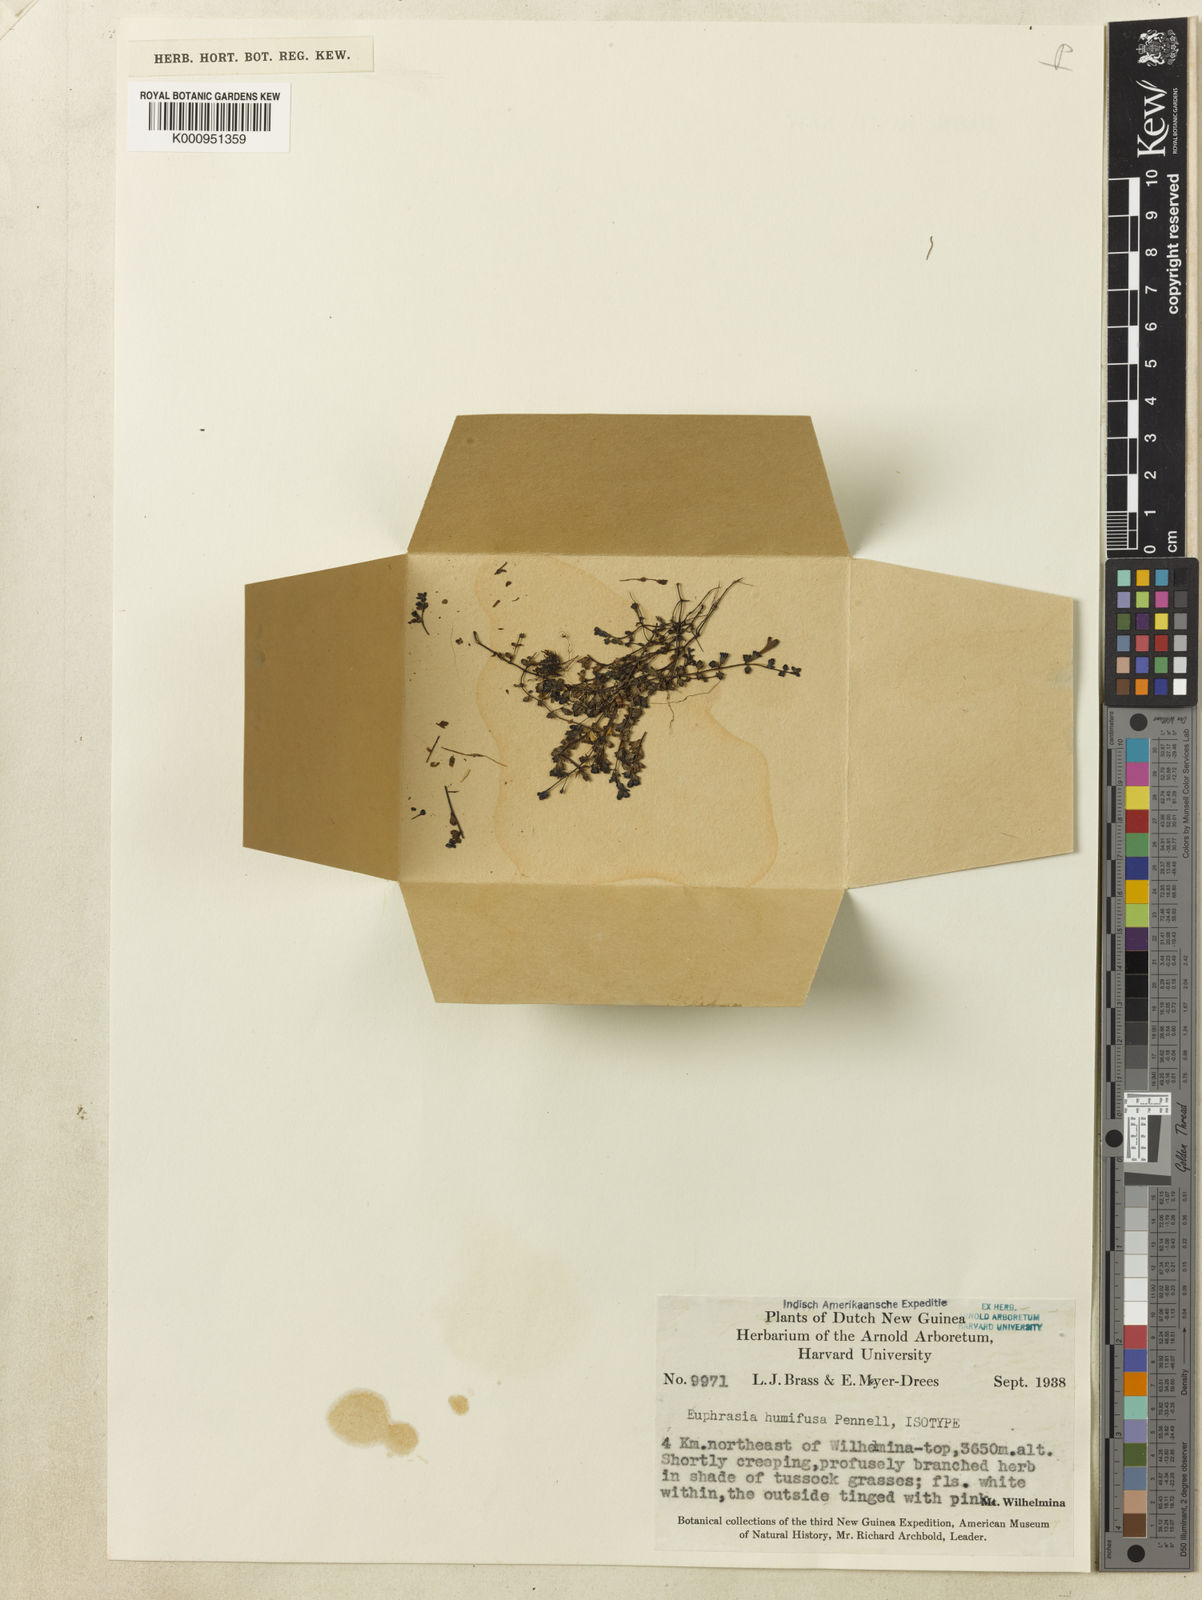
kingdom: Plantae
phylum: Tracheophyta
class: Magnoliopsida
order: Lamiales
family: Orobanchaceae
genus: Euphrasia
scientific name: Euphrasia humifusa
